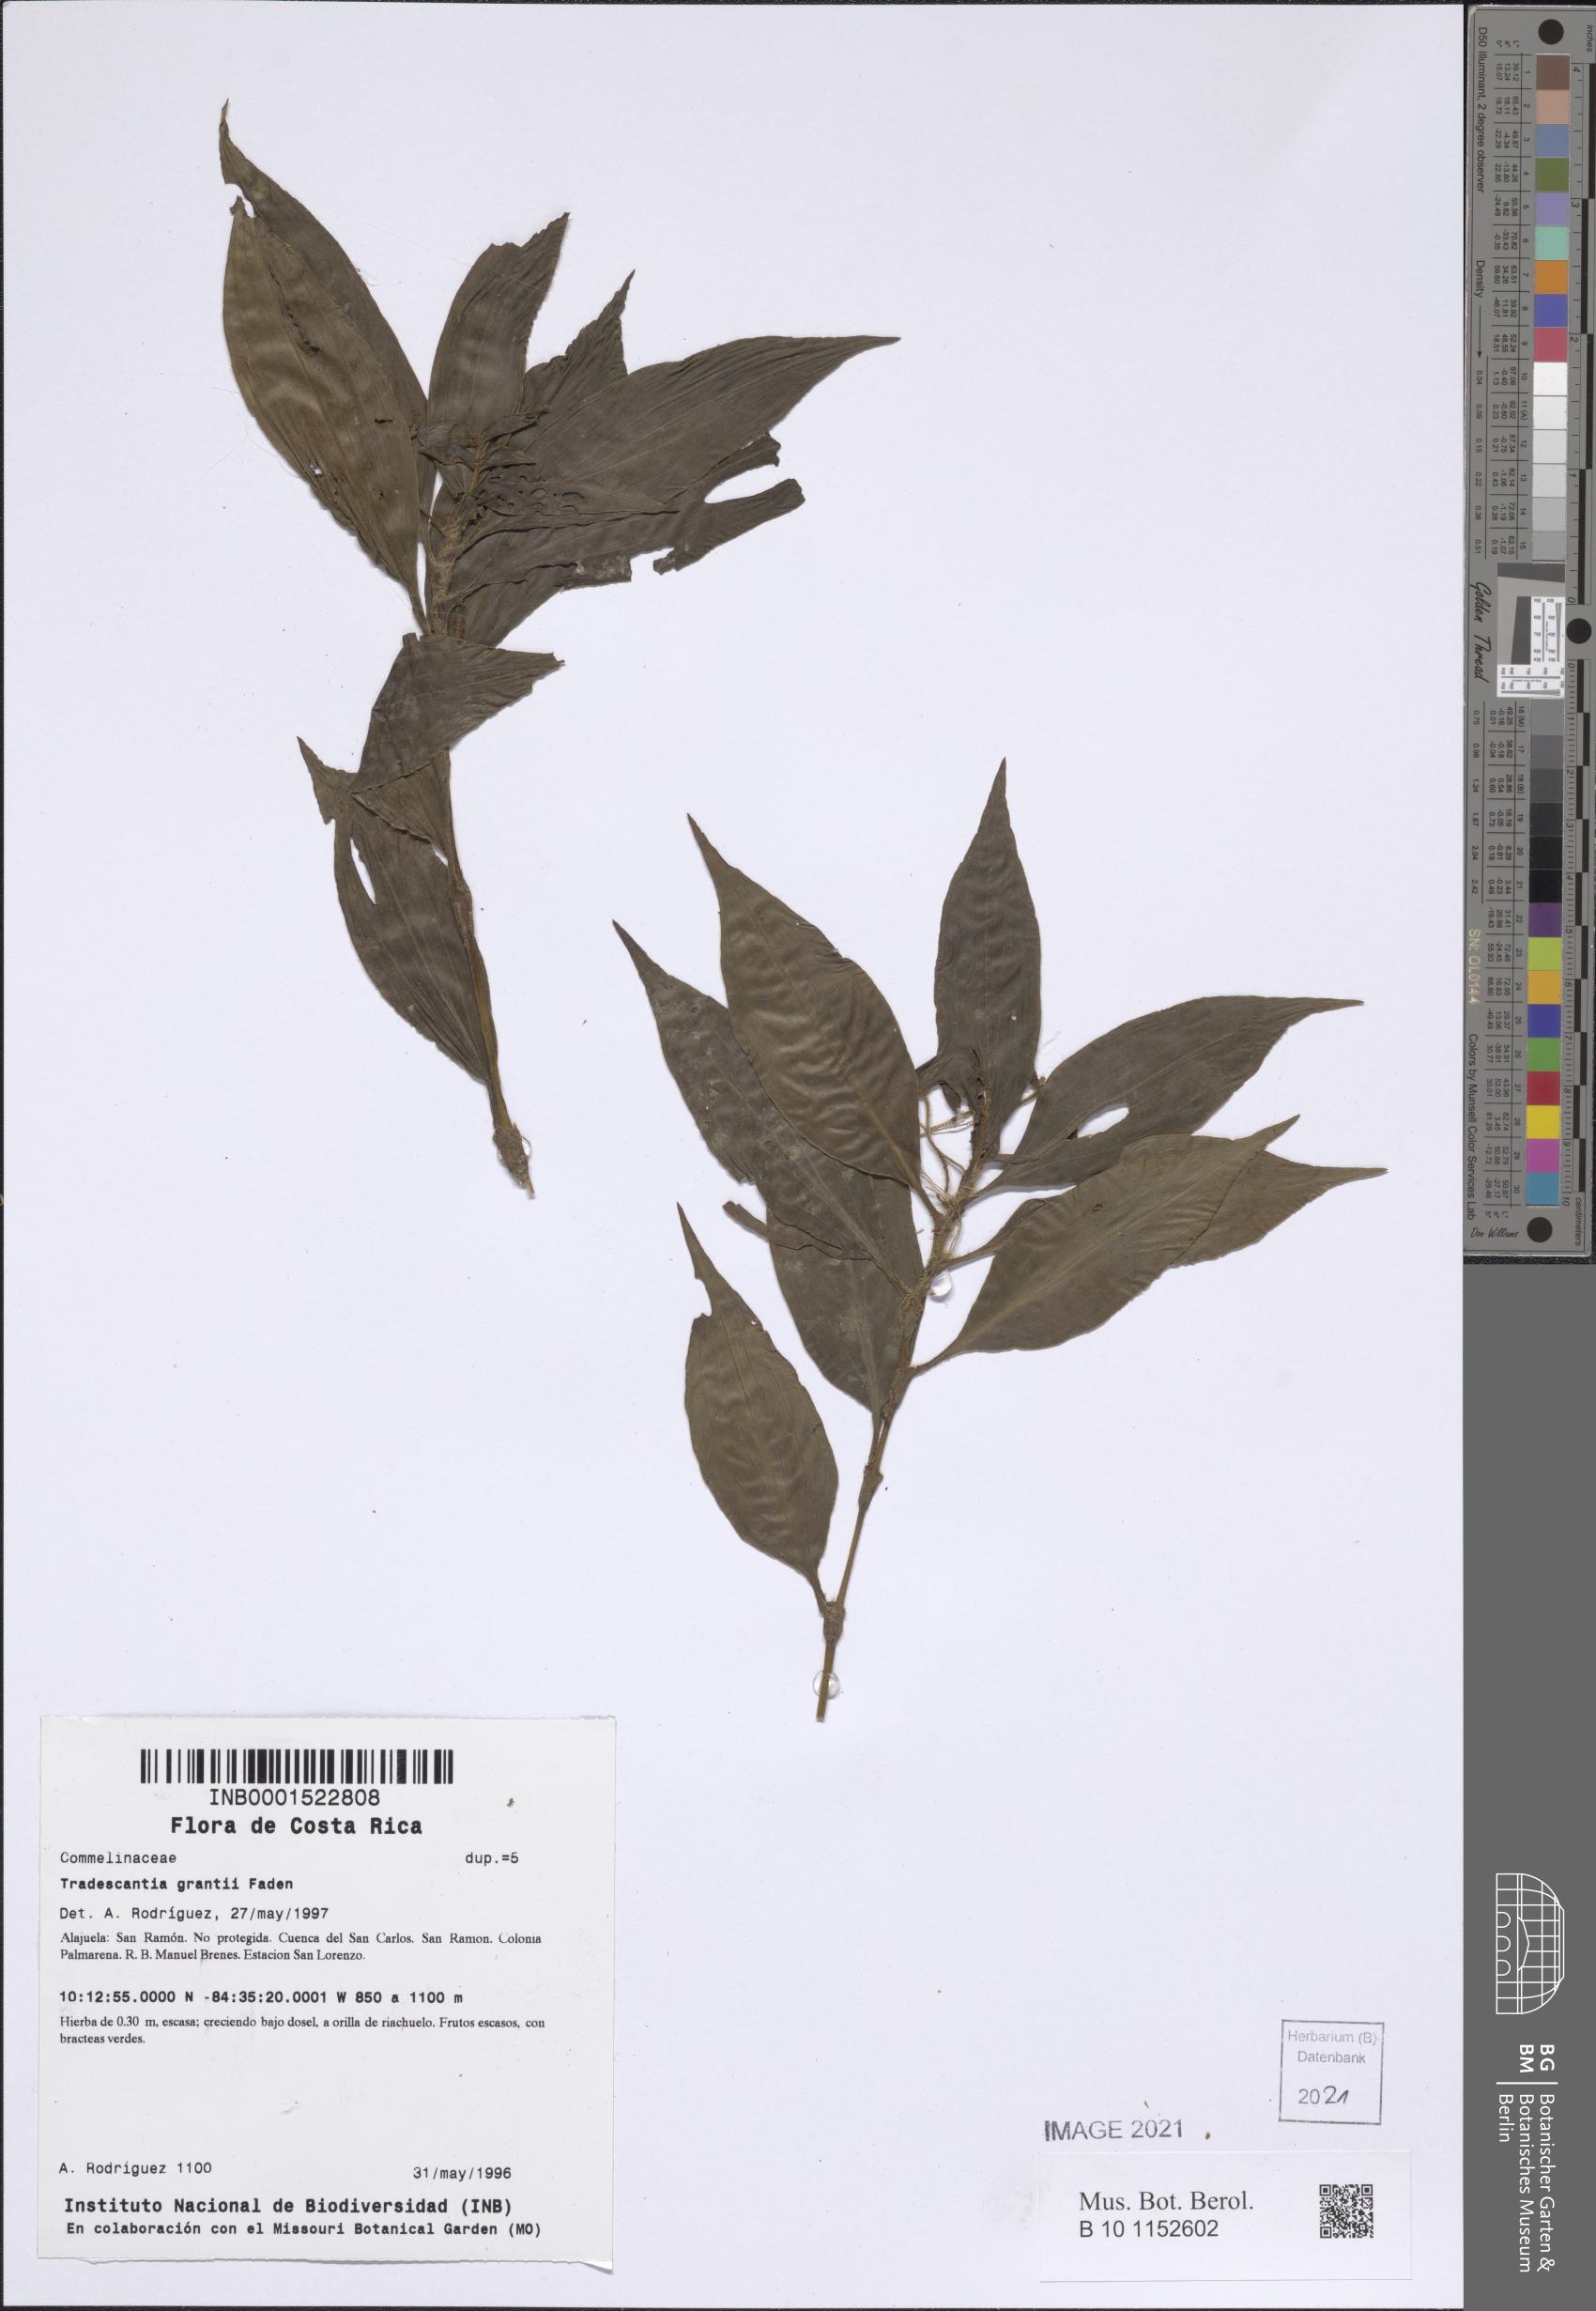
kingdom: Plantae
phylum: Tracheophyta
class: Liliopsida
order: Commelinales
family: Commelinaceae
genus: Tradescantia
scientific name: Tradescantia grantii
